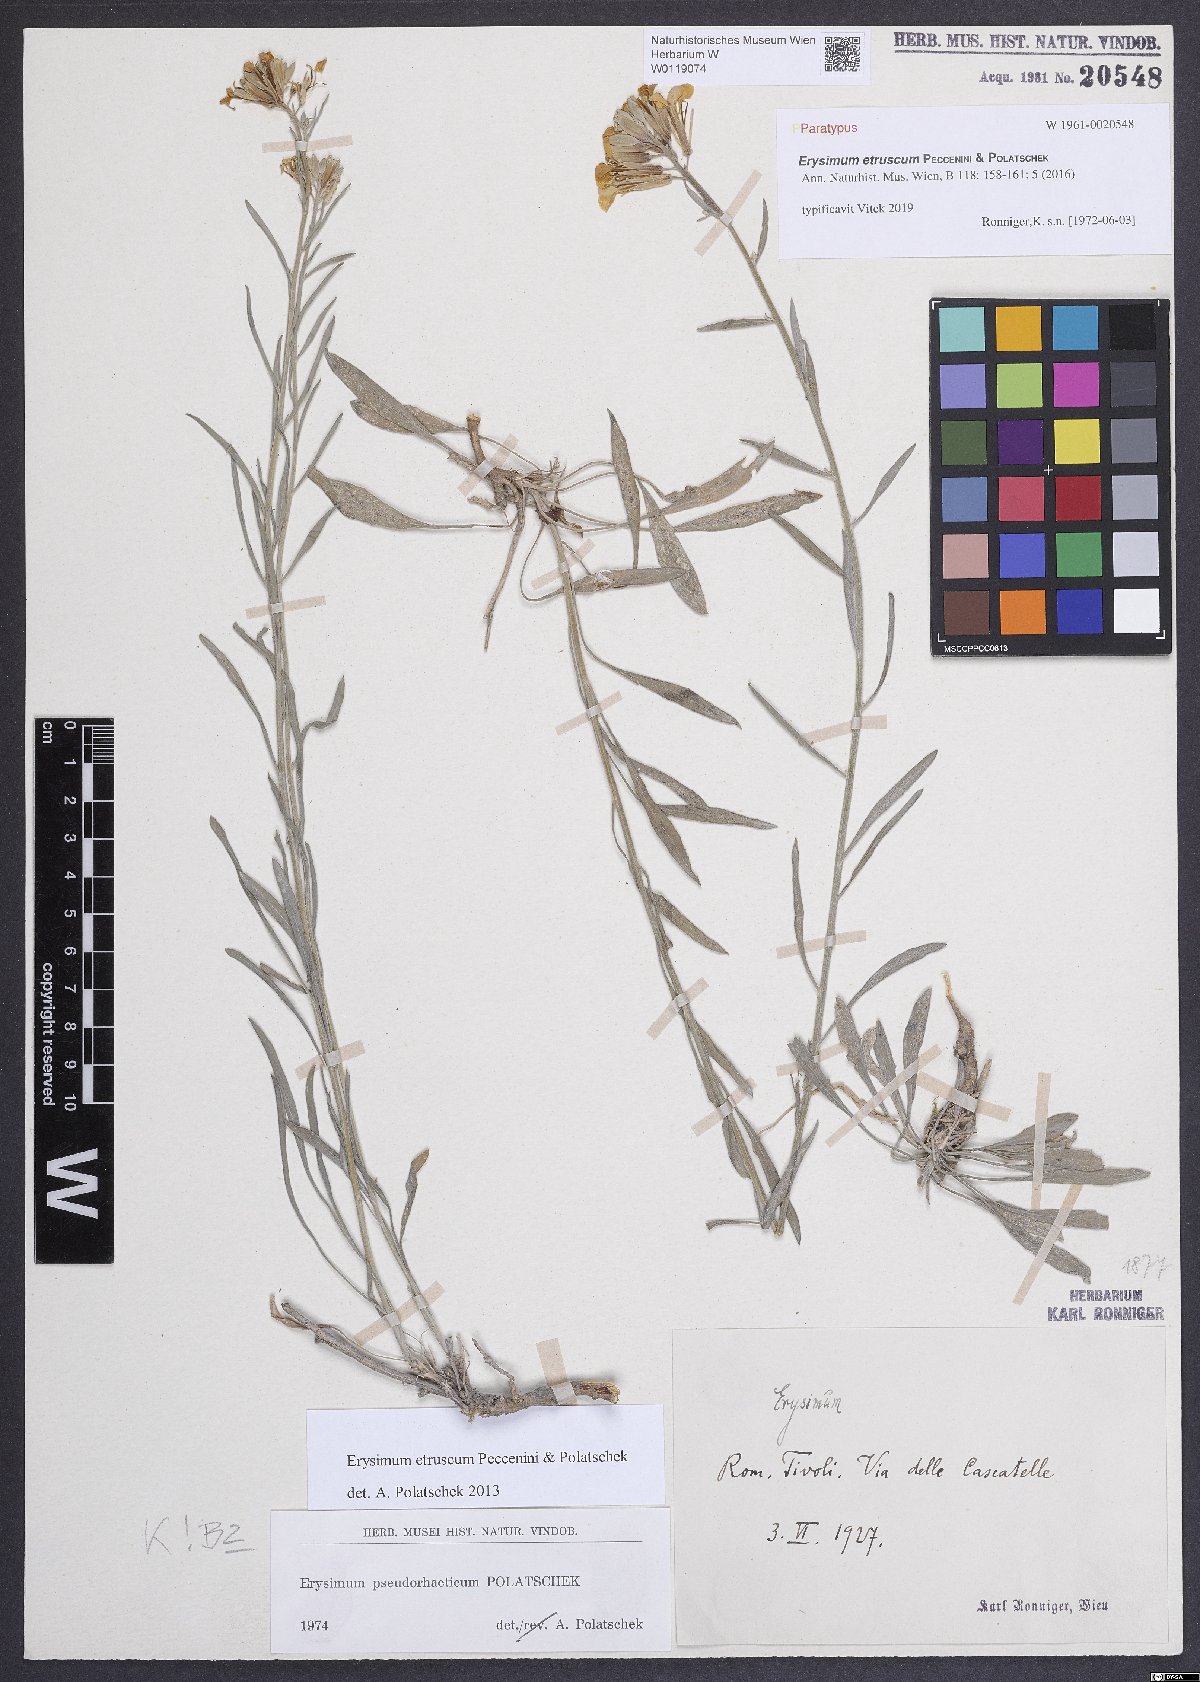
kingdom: Plantae
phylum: Tracheophyta
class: Magnoliopsida
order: Brassicales
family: Brassicaceae
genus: Erysimum
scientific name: Erysimum pseudorhaeticum
